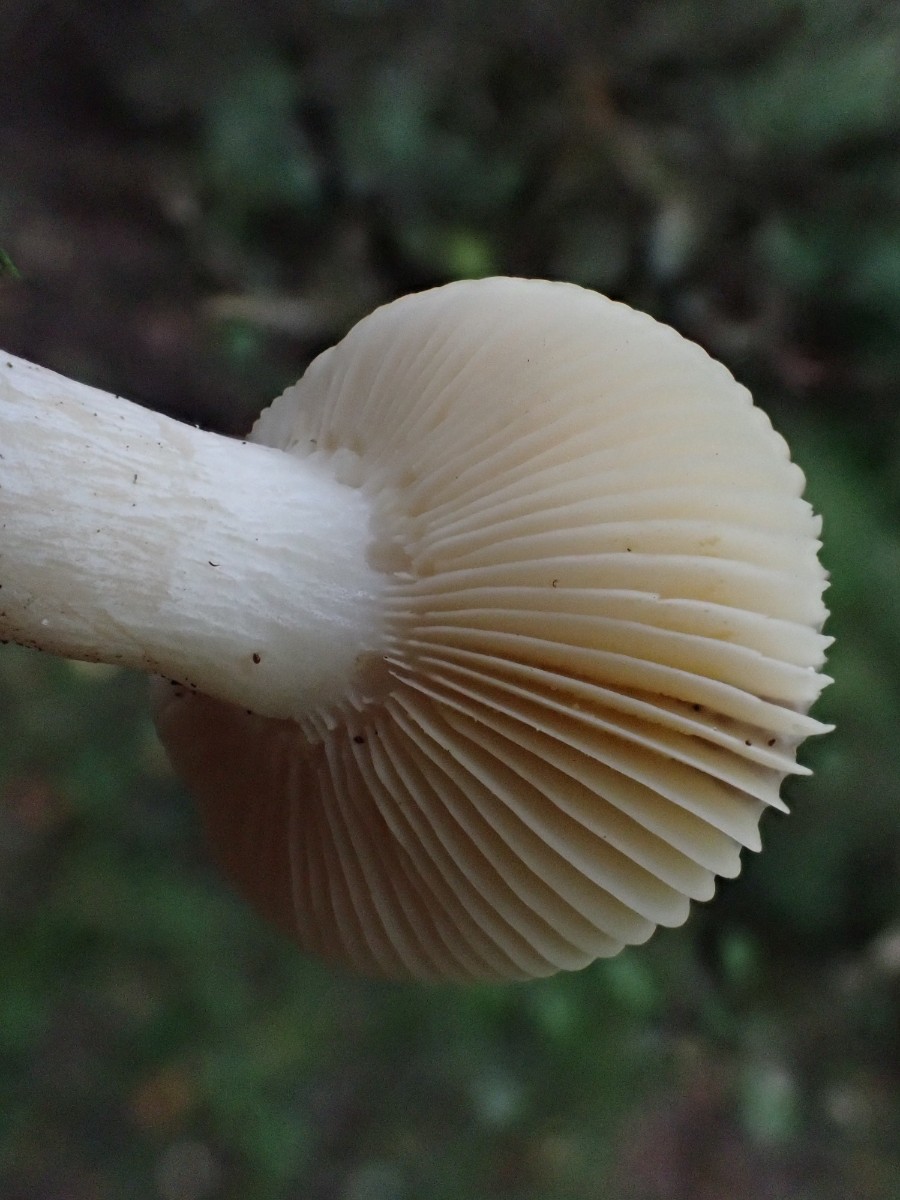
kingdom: Fungi
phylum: Basidiomycota
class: Agaricomycetes
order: Russulales
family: Russulaceae
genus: Russula
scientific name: Russula nitida
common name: året skørhat
